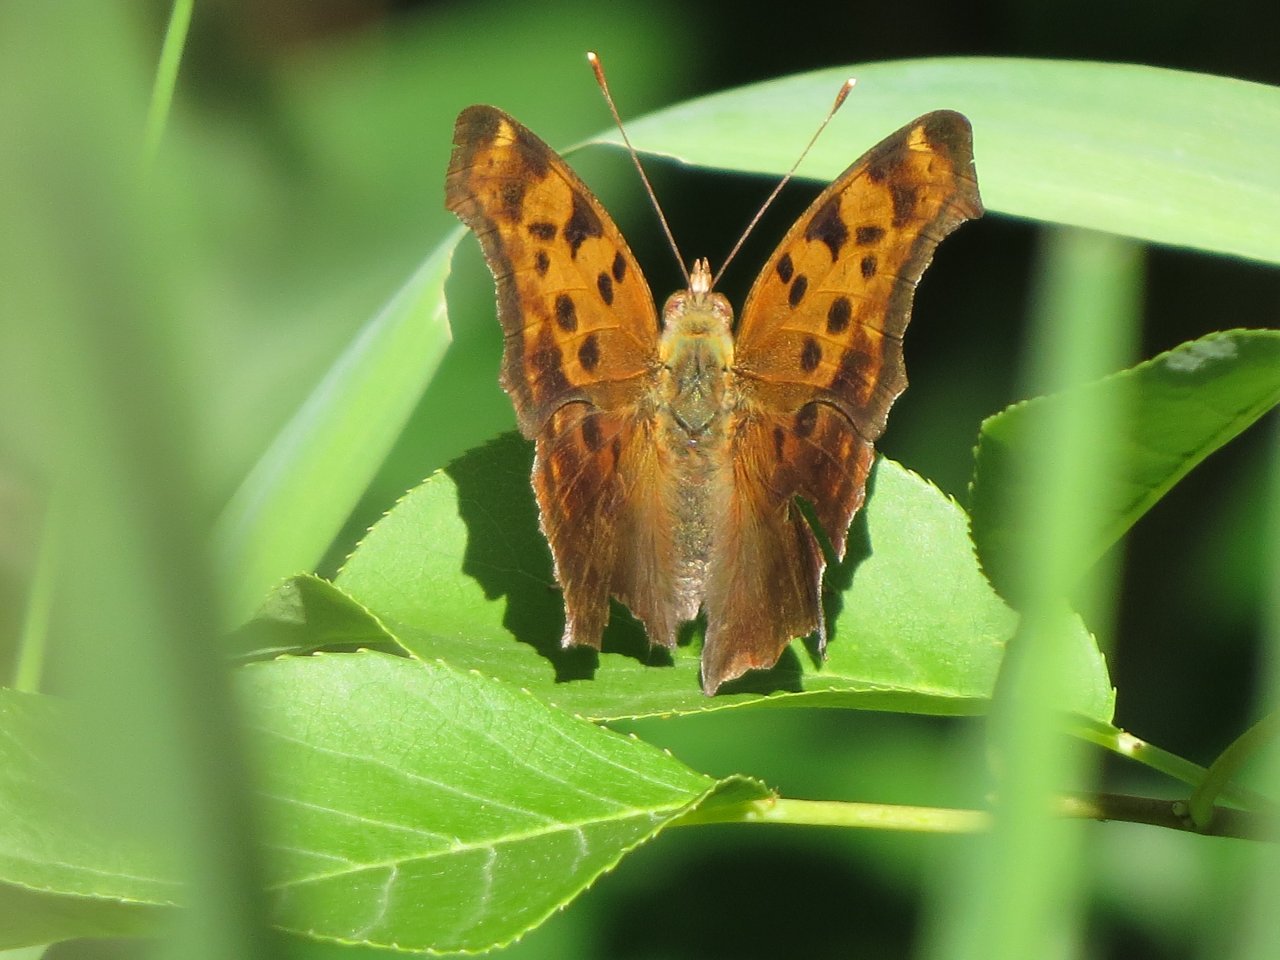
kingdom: Animalia
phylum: Arthropoda
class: Insecta
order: Lepidoptera
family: Nymphalidae
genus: Polygonia
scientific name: Polygonia interrogationis
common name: Question Mark
